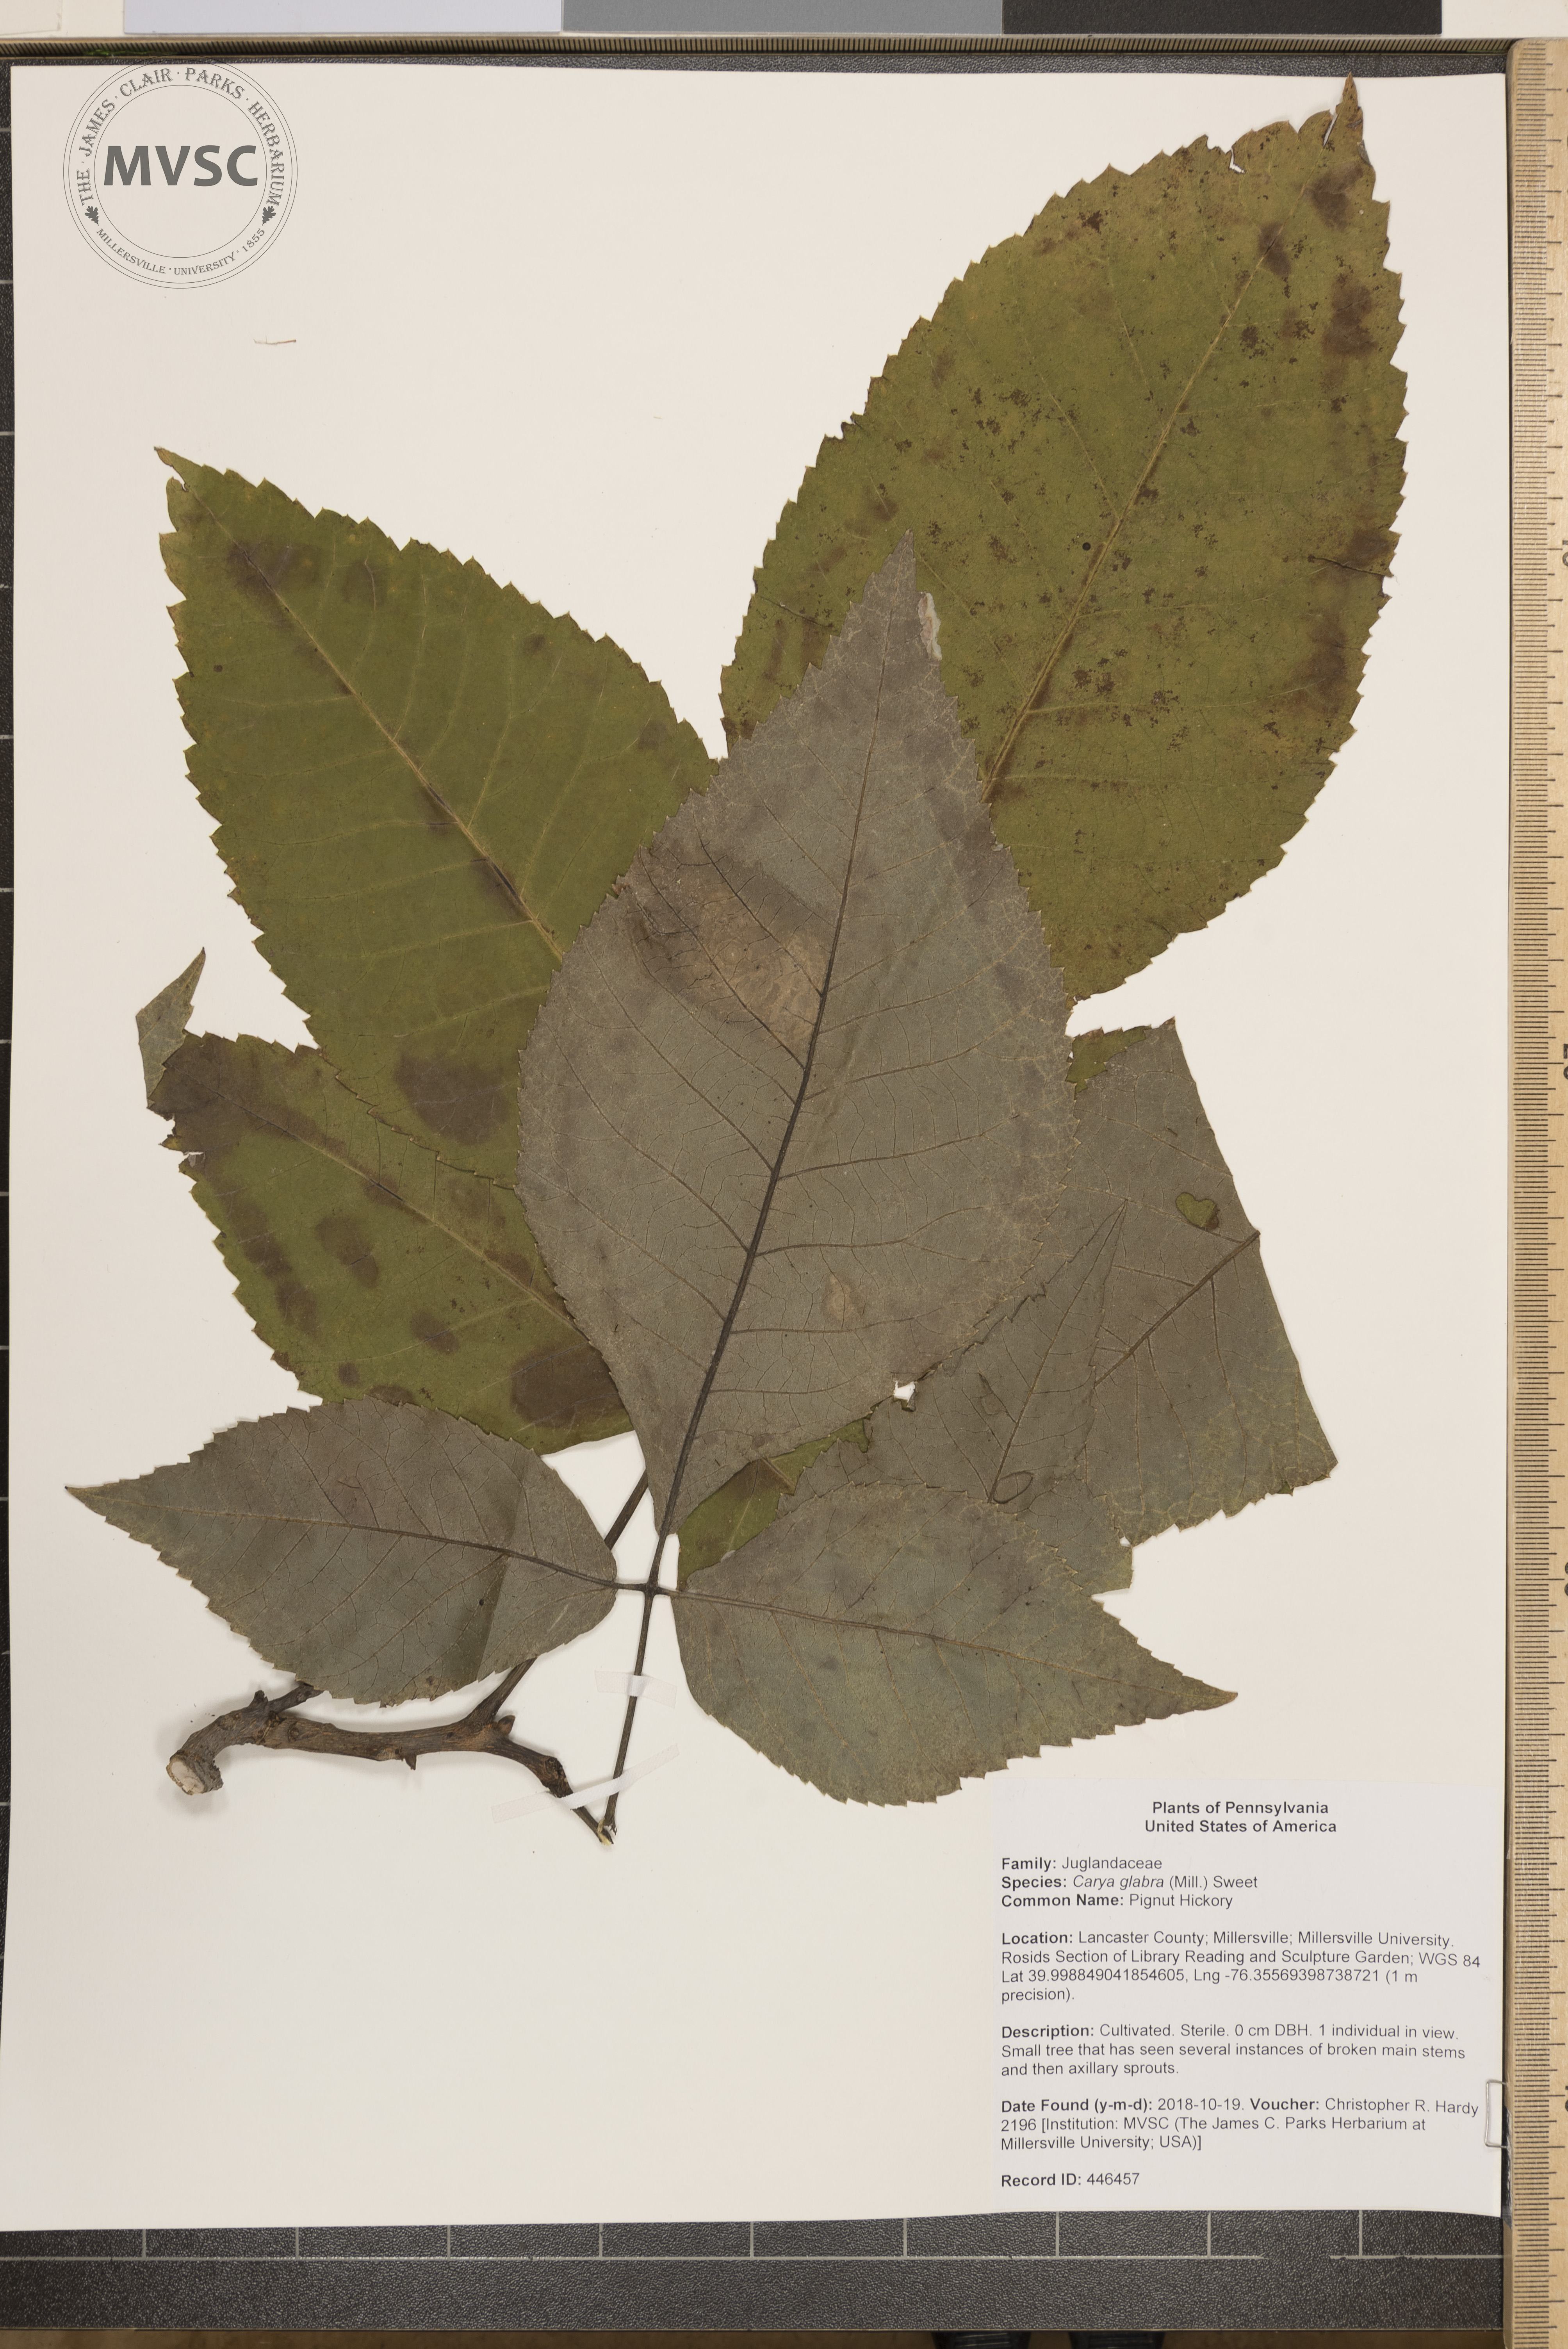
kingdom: Plantae
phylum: Tracheophyta
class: Magnoliopsida
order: Fagales
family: Juglandaceae
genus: Carya
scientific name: Carya glabra
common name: Pignut Hickory
